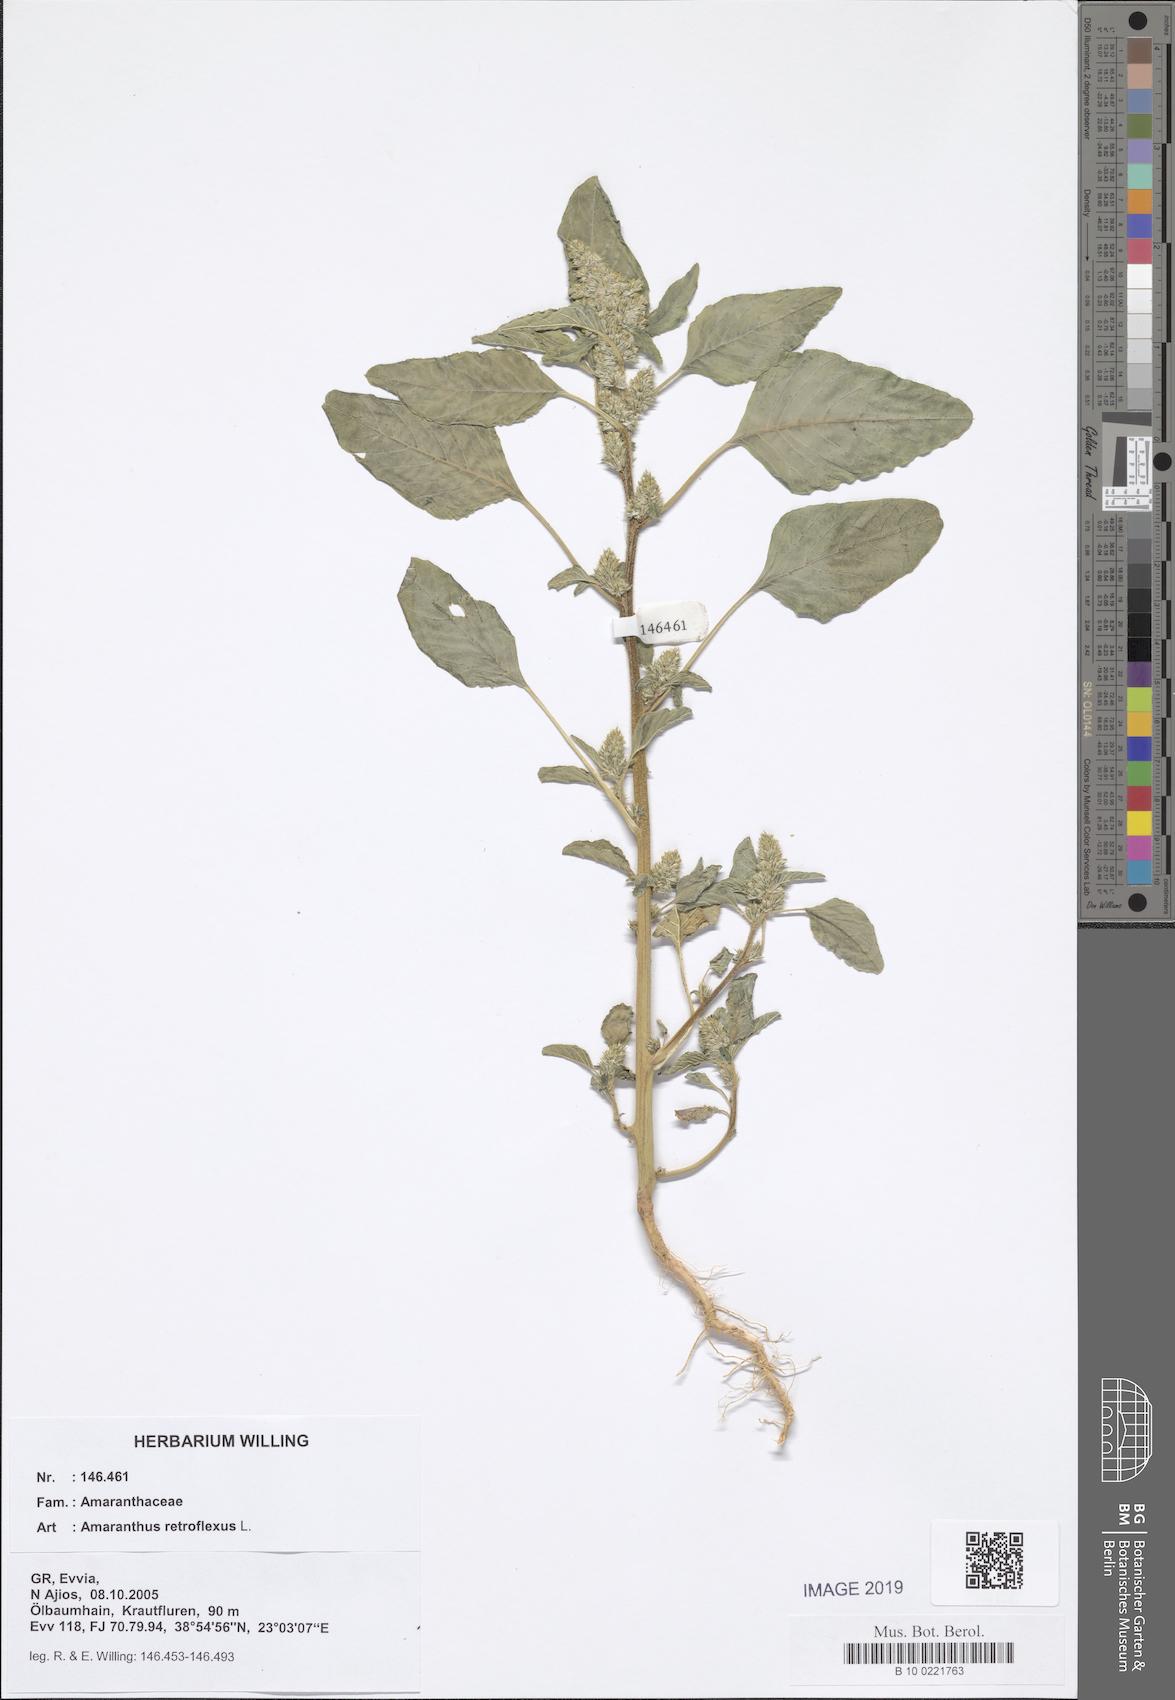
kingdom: Plantae
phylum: Tracheophyta
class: Magnoliopsida
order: Caryophyllales
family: Amaranthaceae
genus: Amaranthus
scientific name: Amaranthus retroflexus
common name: Redroot amaranth
